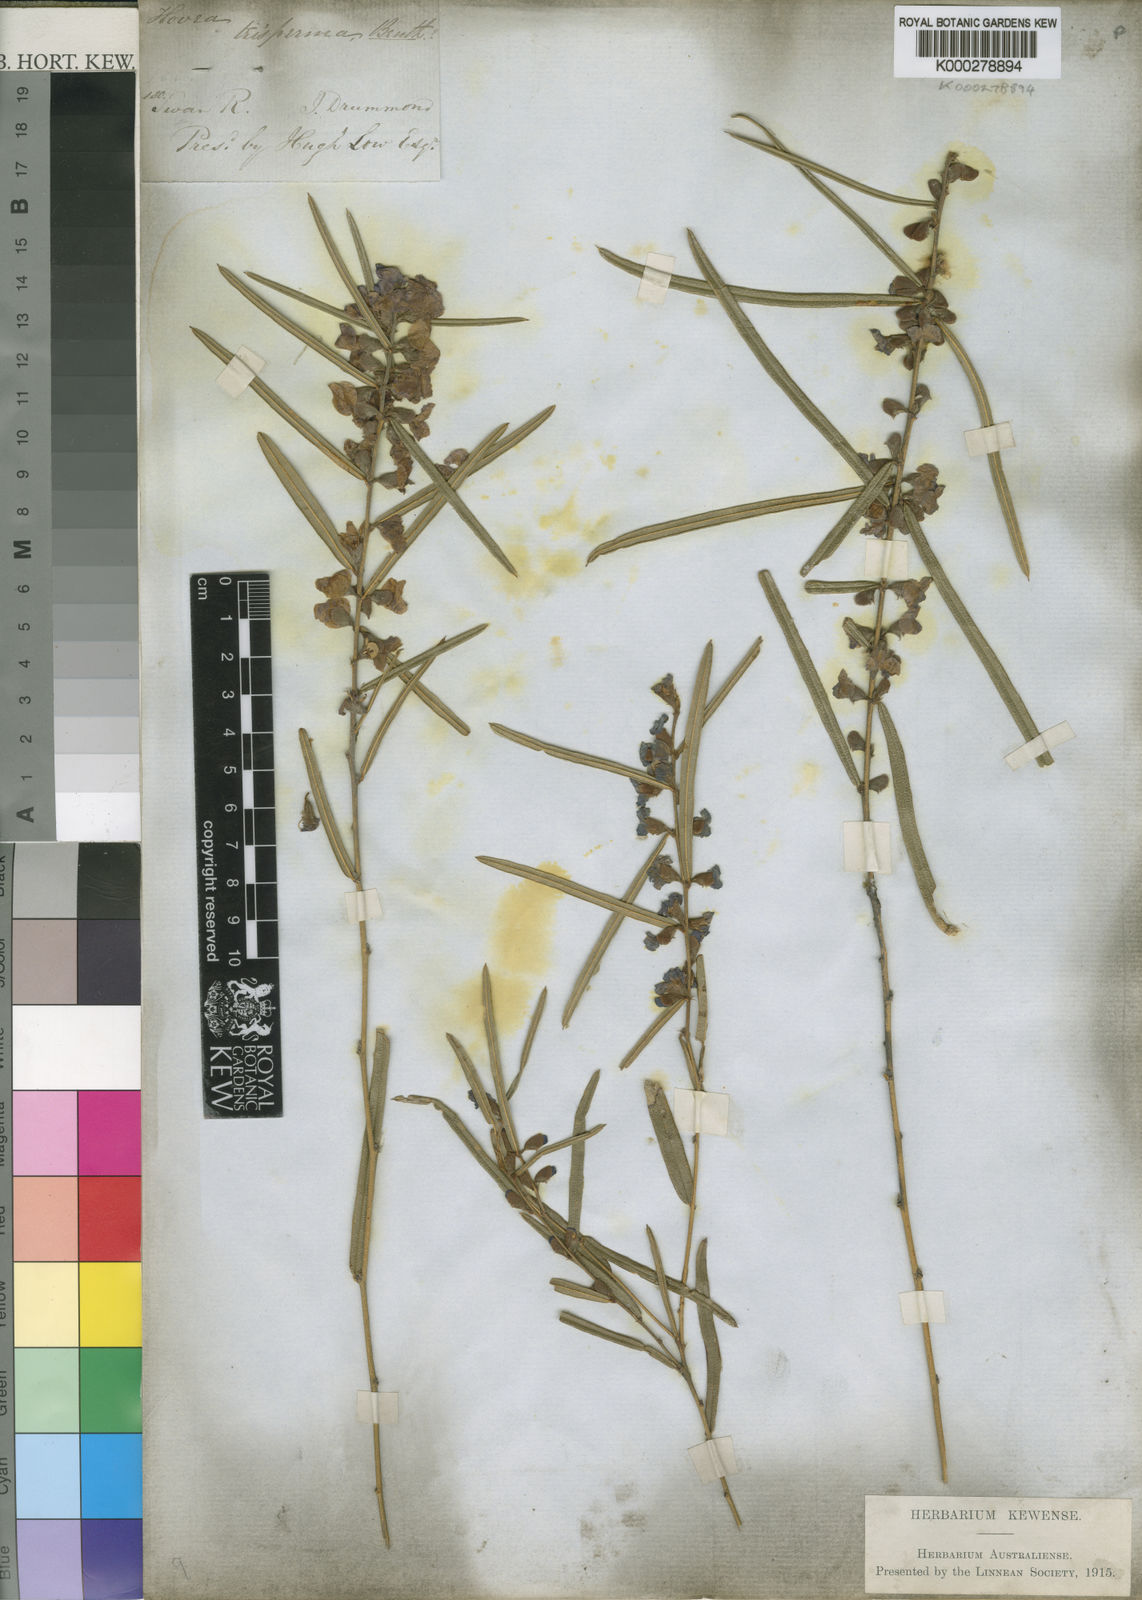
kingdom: Plantae
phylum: Tracheophyta
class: Magnoliopsida
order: Fabales
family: Fabaceae
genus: Hovea
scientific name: Hovea trisperma
